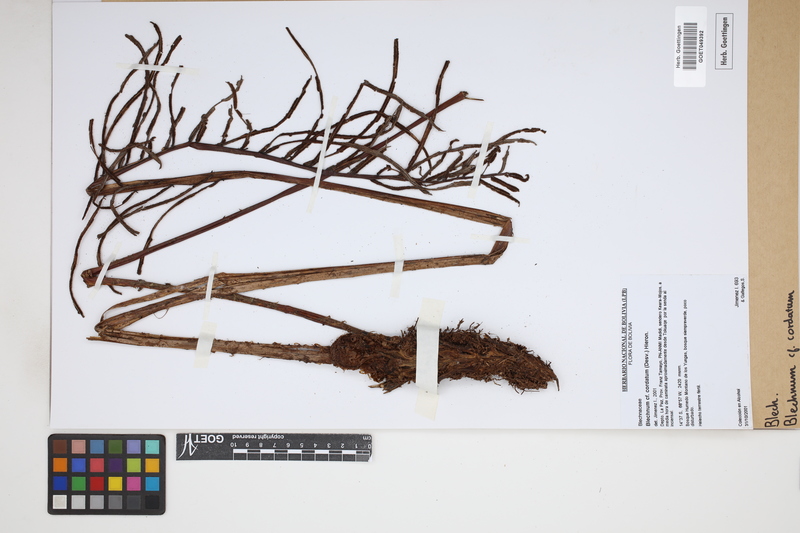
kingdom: Plantae
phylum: Tracheophyta
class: Polypodiopsida
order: Polypodiales
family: Blechnaceae
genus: Parablechnum
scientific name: Parablechnum cordatum
